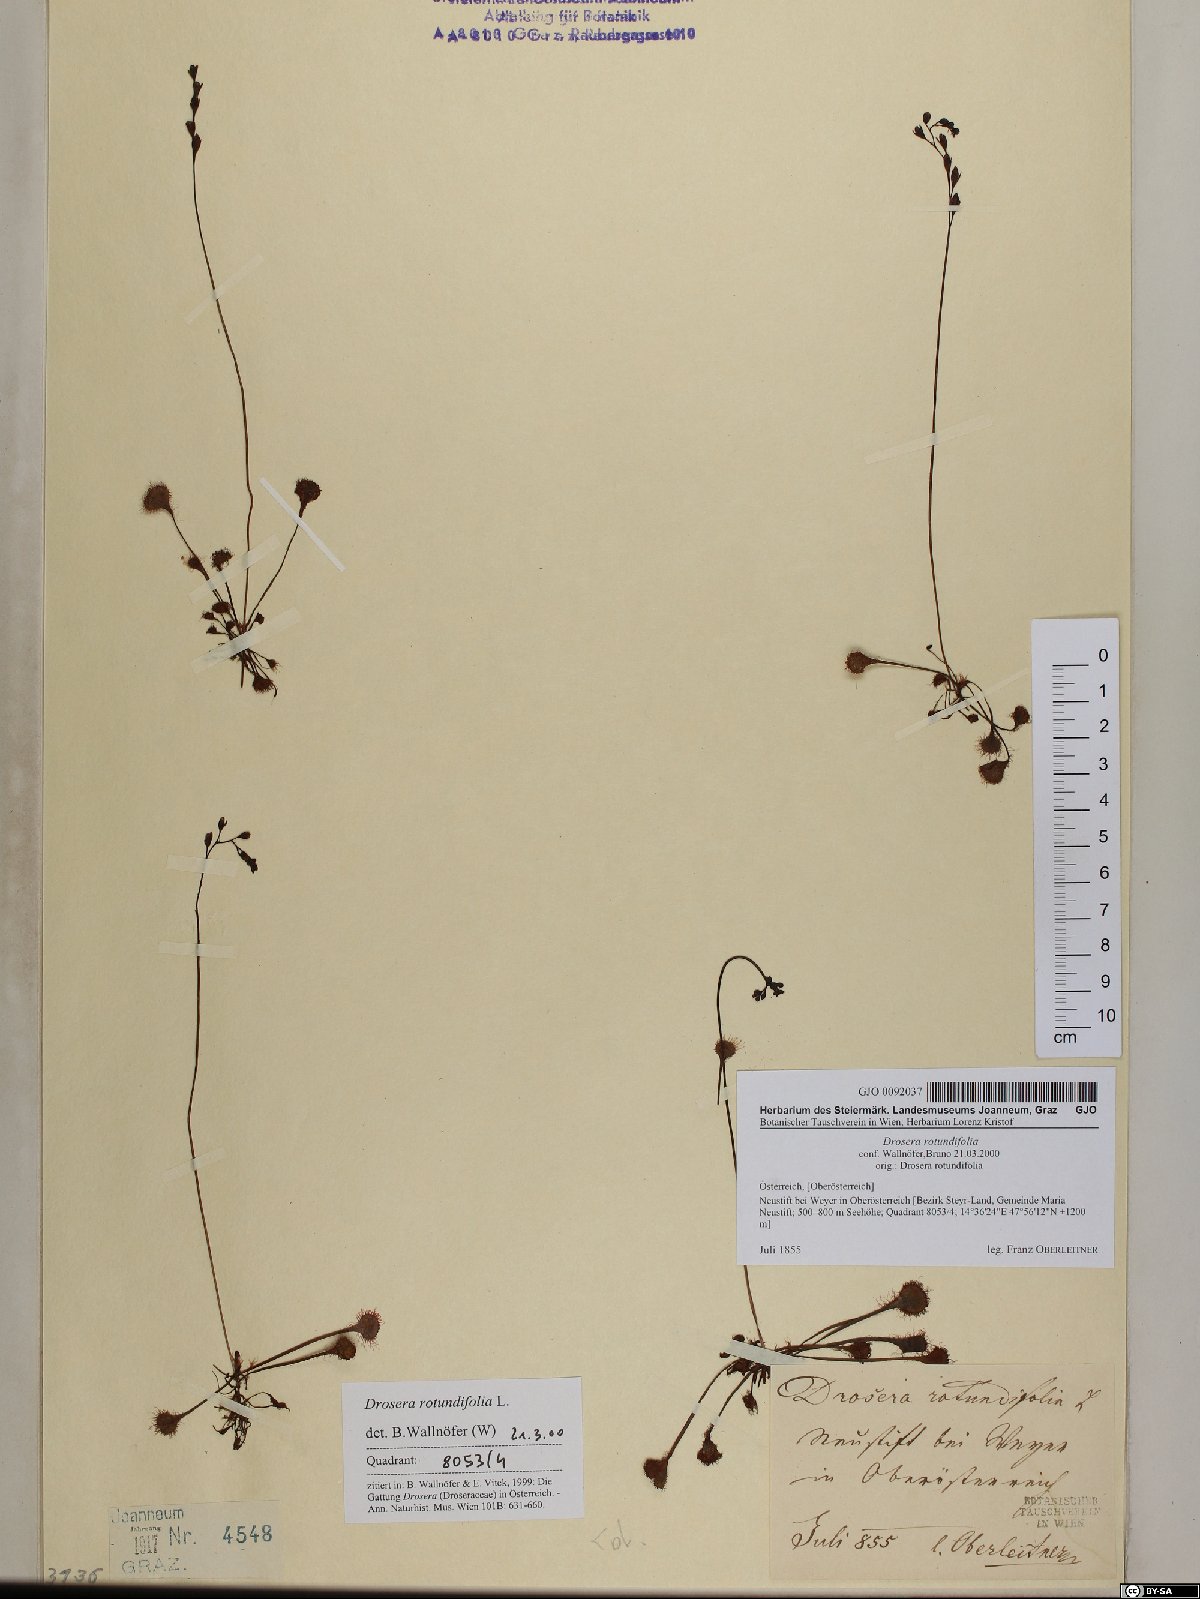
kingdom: Plantae
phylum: Tracheophyta
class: Magnoliopsida
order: Caryophyllales
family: Droseraceae
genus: Drosera
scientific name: Drosera rotundifolia
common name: Round-leaved sundew
